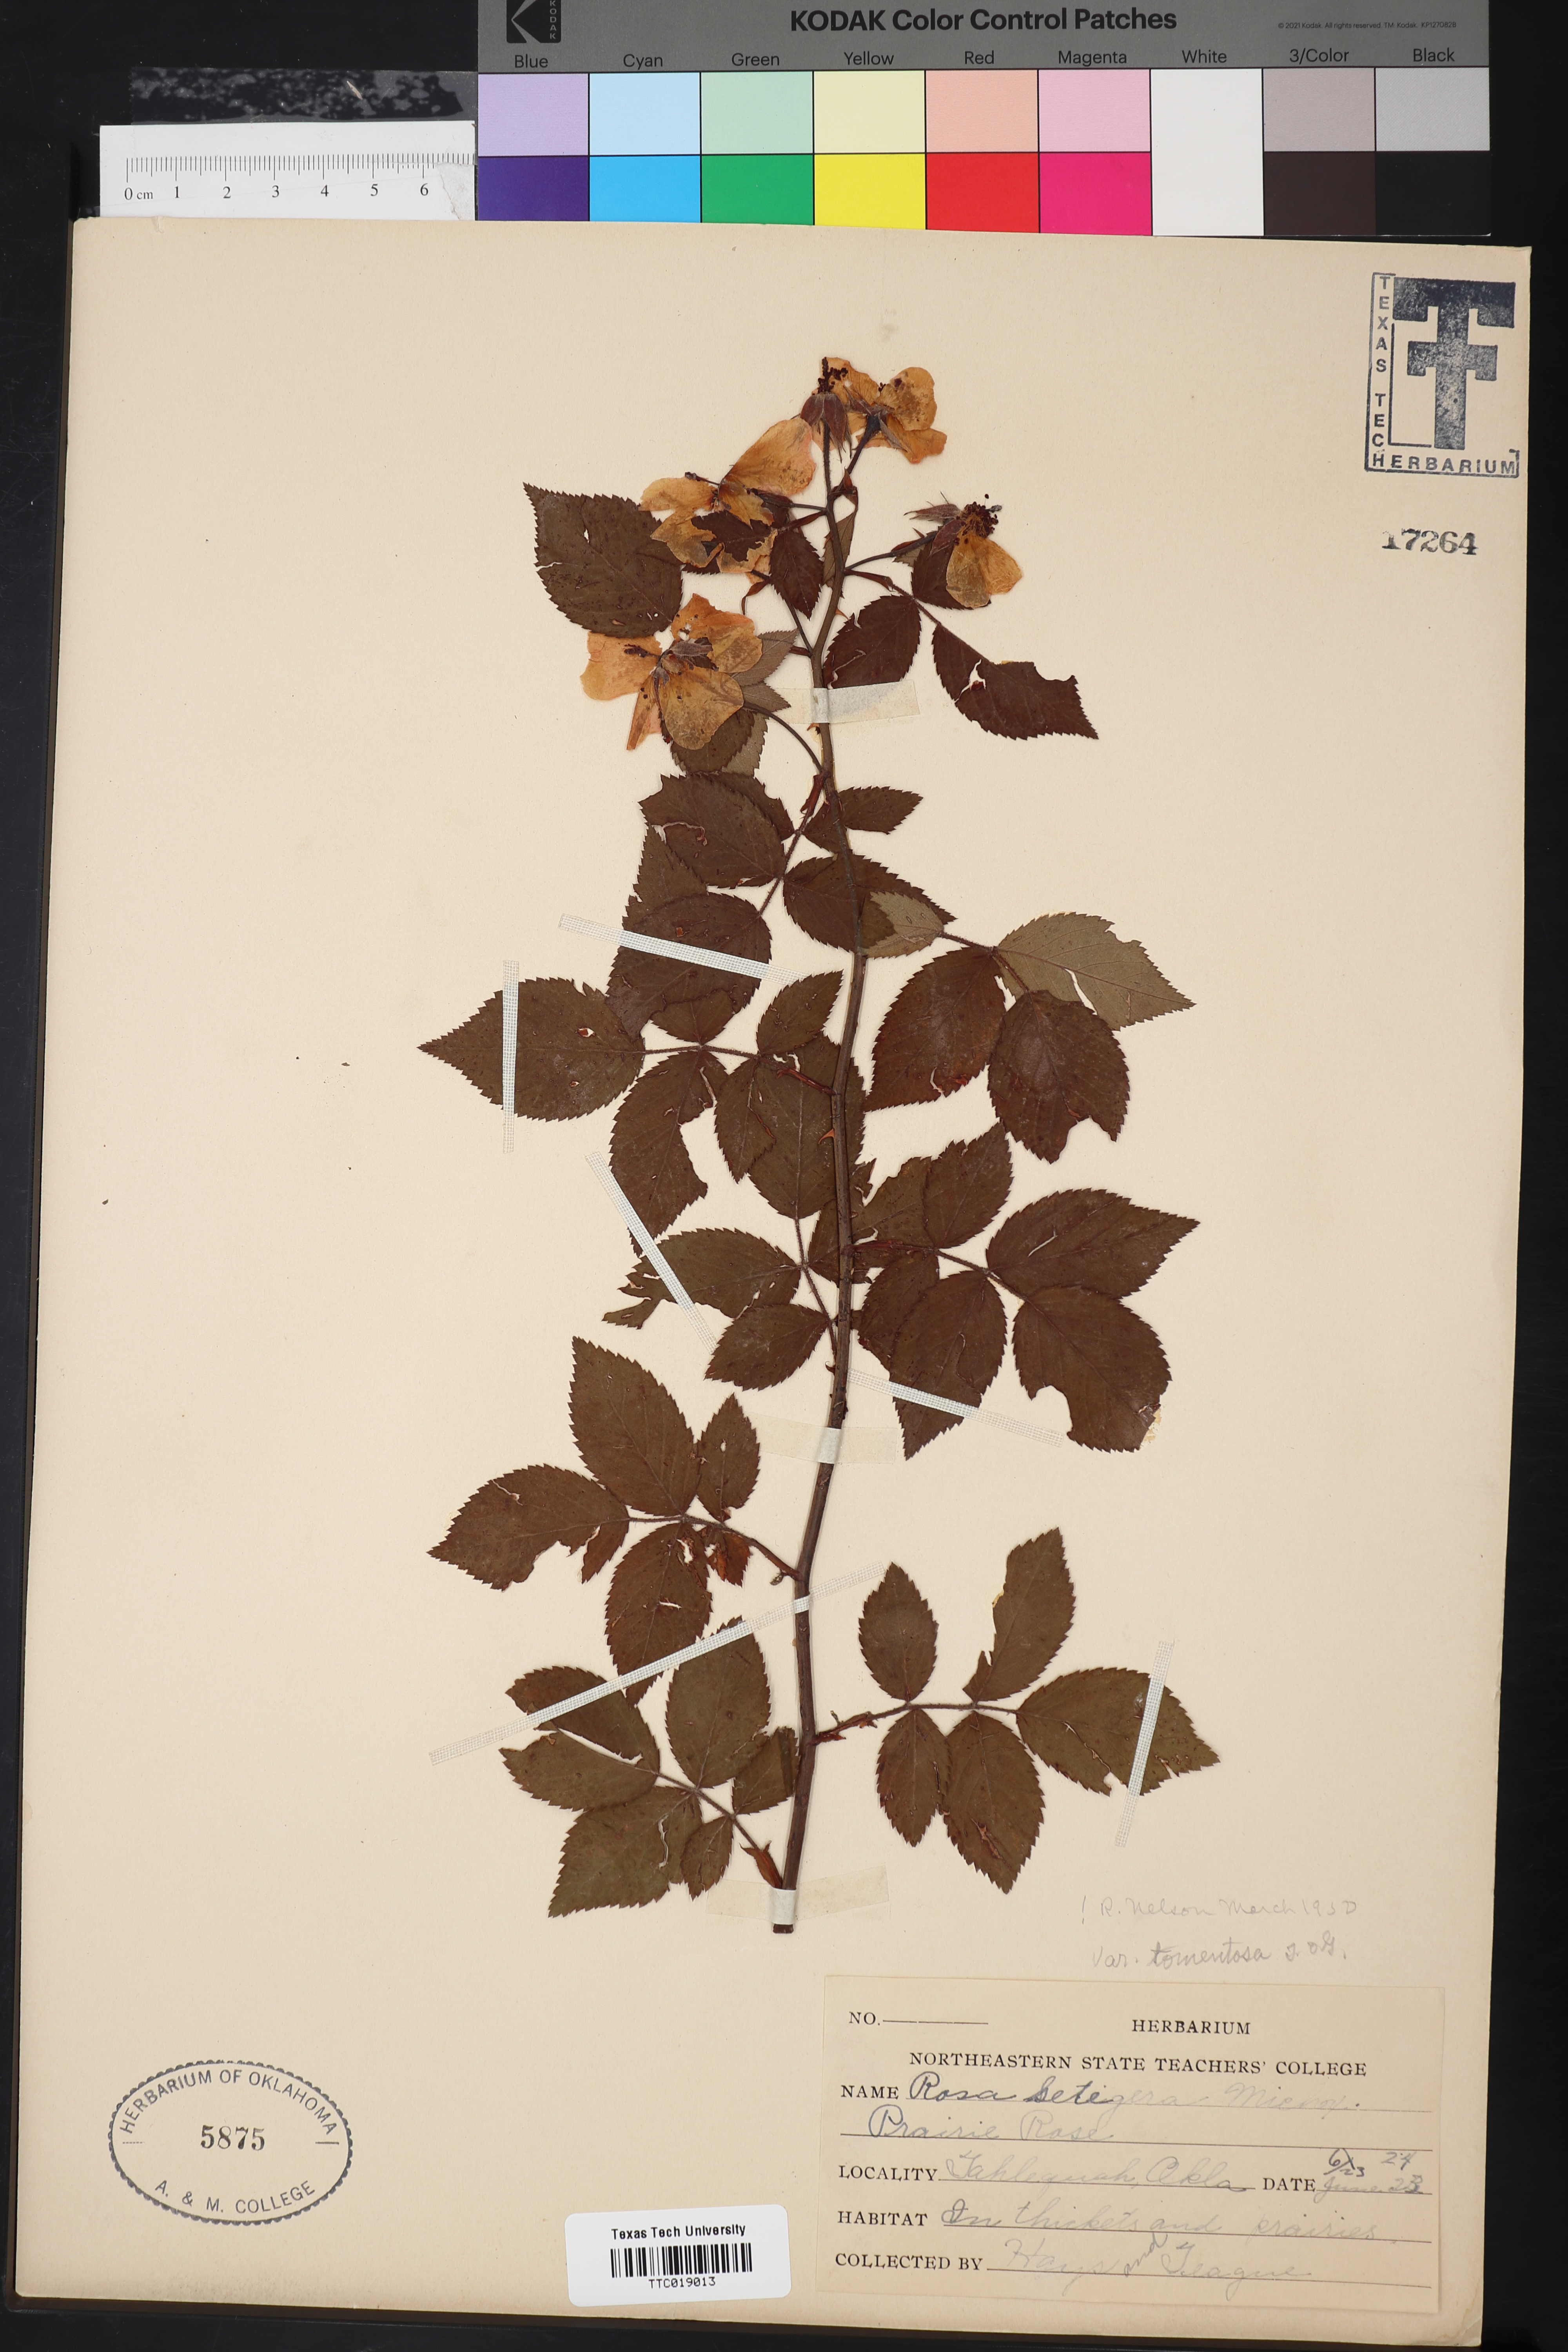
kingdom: Plantae
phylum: Tracheophyta
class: Magnoliopsida
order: Rosales
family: Rosaceae
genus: Rosa
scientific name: Rosa setigera
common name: Prairie rose
